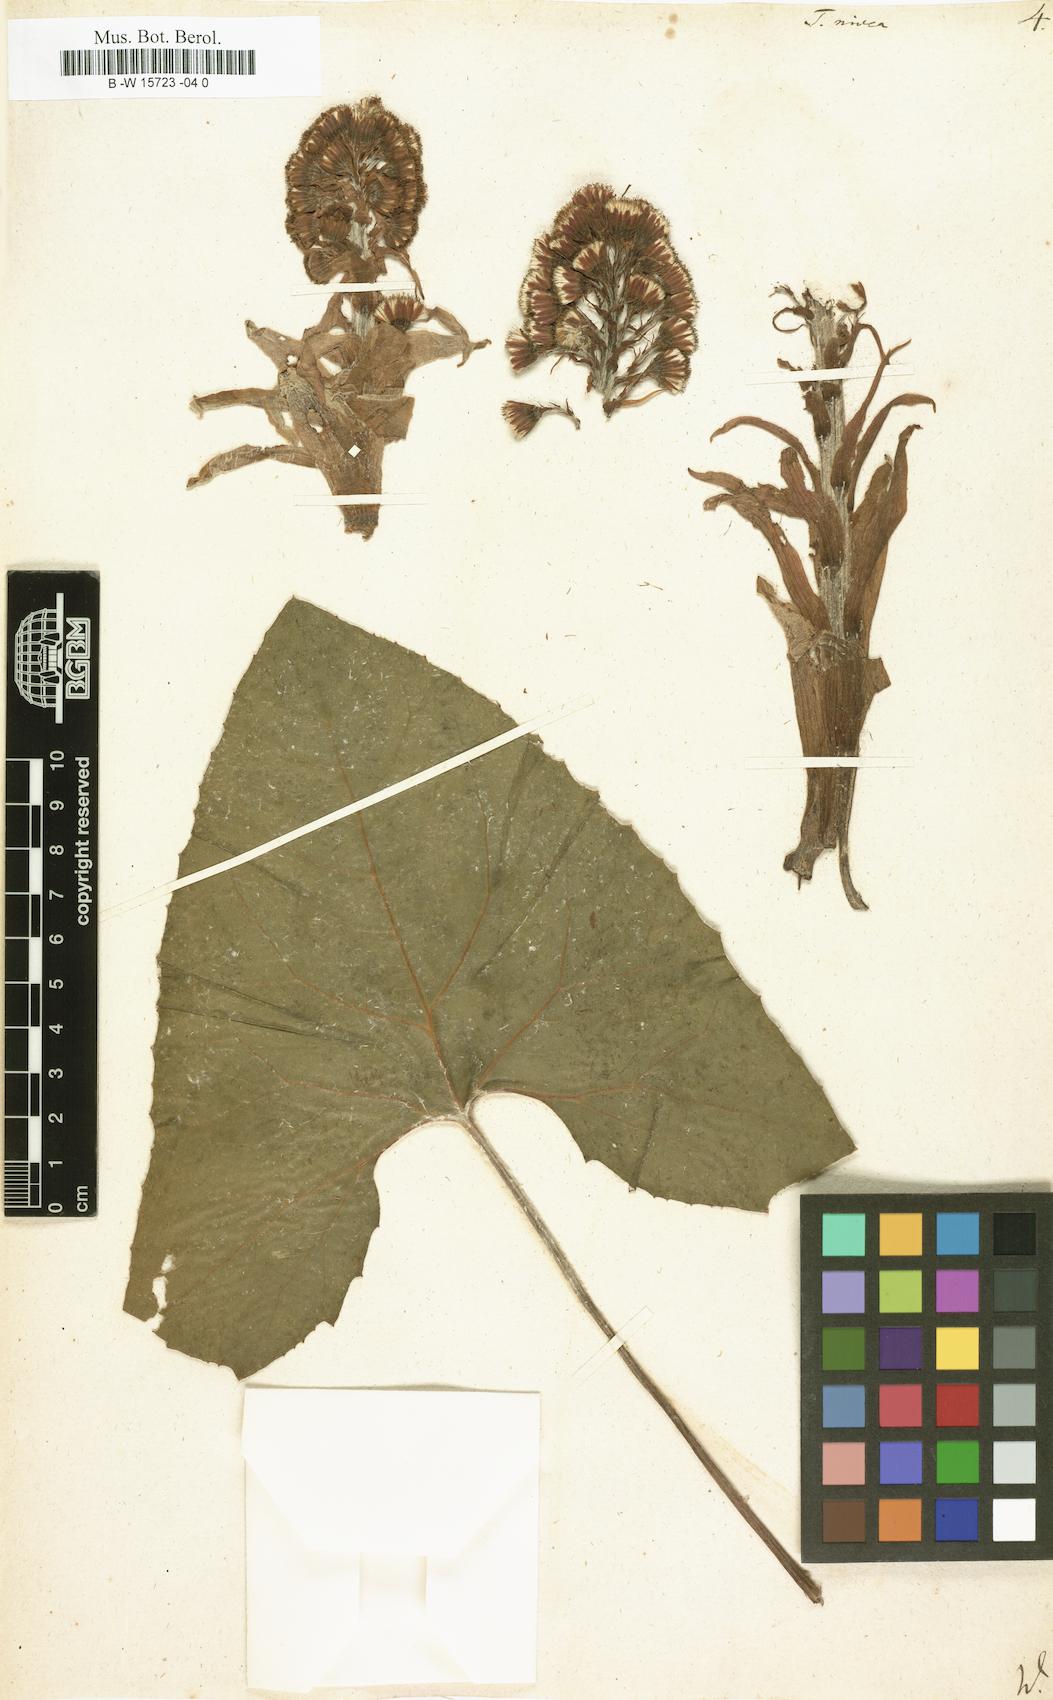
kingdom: Plantae
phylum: Tracheophyta
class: Magnoliopsida
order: Asterales
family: Asteraceae
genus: Petasites
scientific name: Petasites paradoxus
